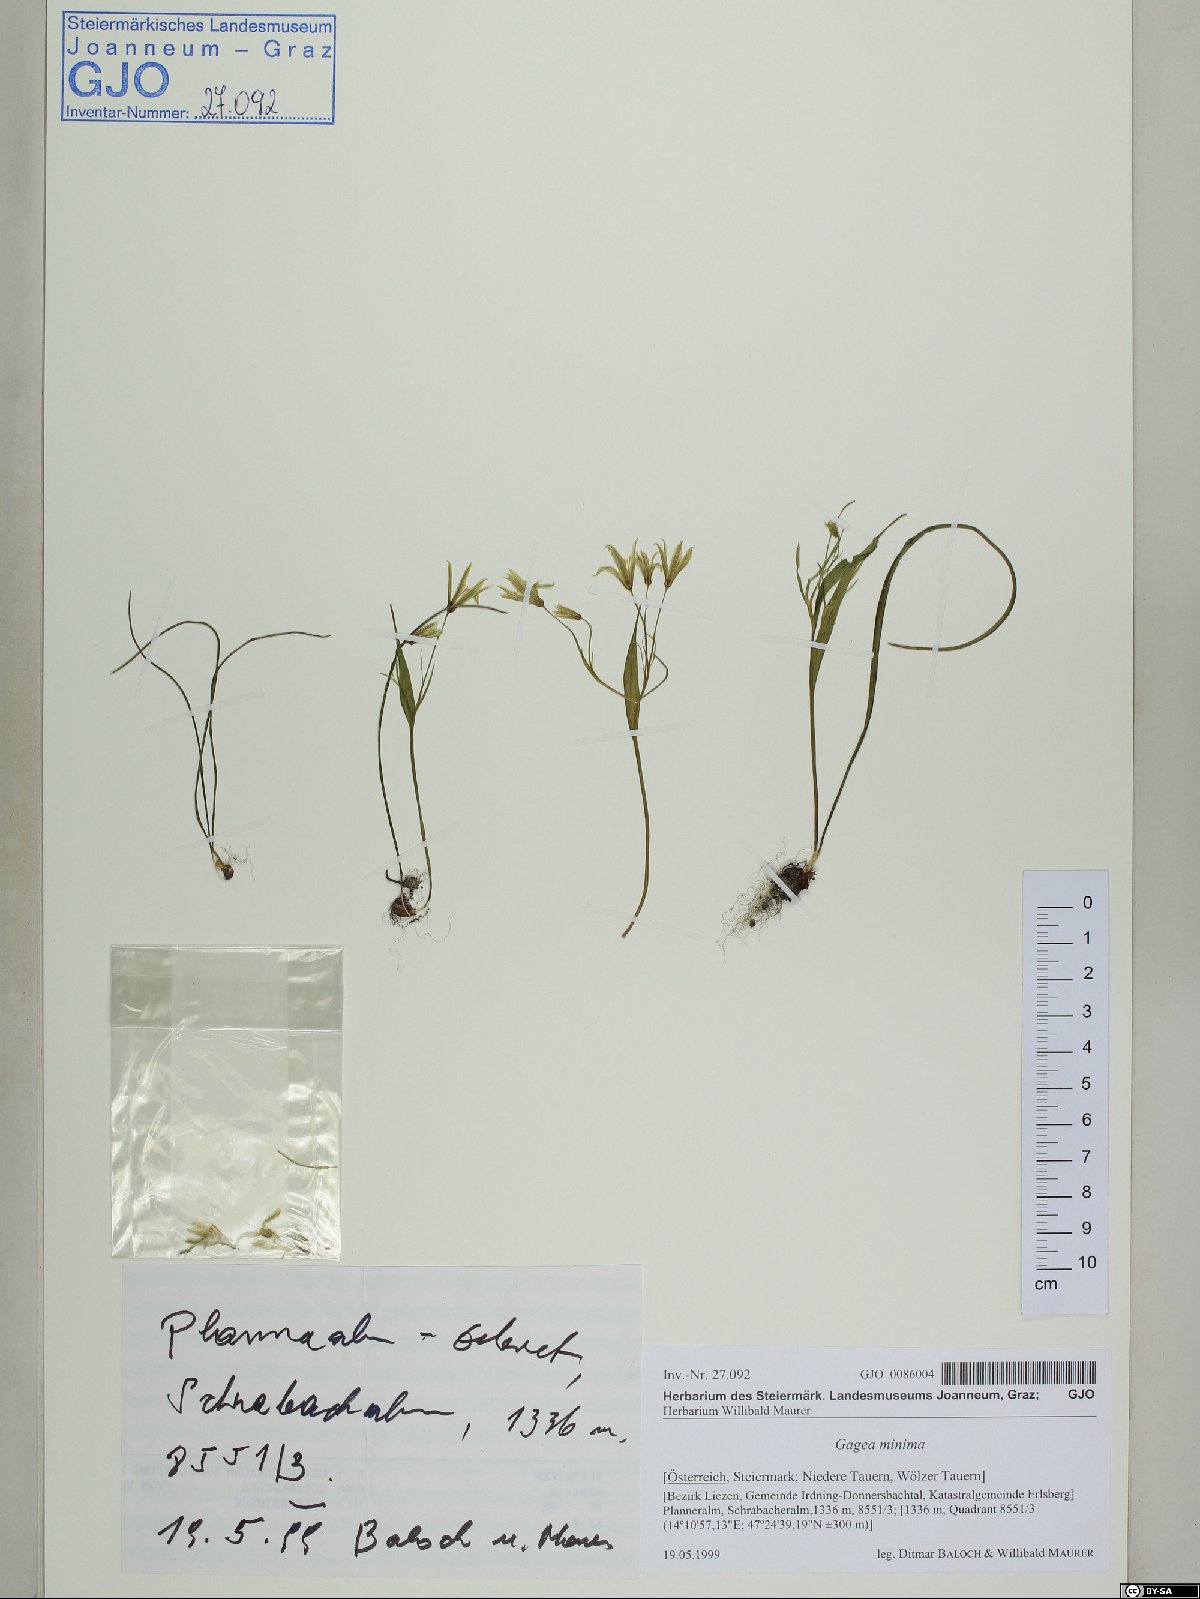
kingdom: Plantae
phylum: Tracheophyta
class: Liliopsida
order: Liliales
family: Liliaceae
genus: Gagea
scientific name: Gagea minima
